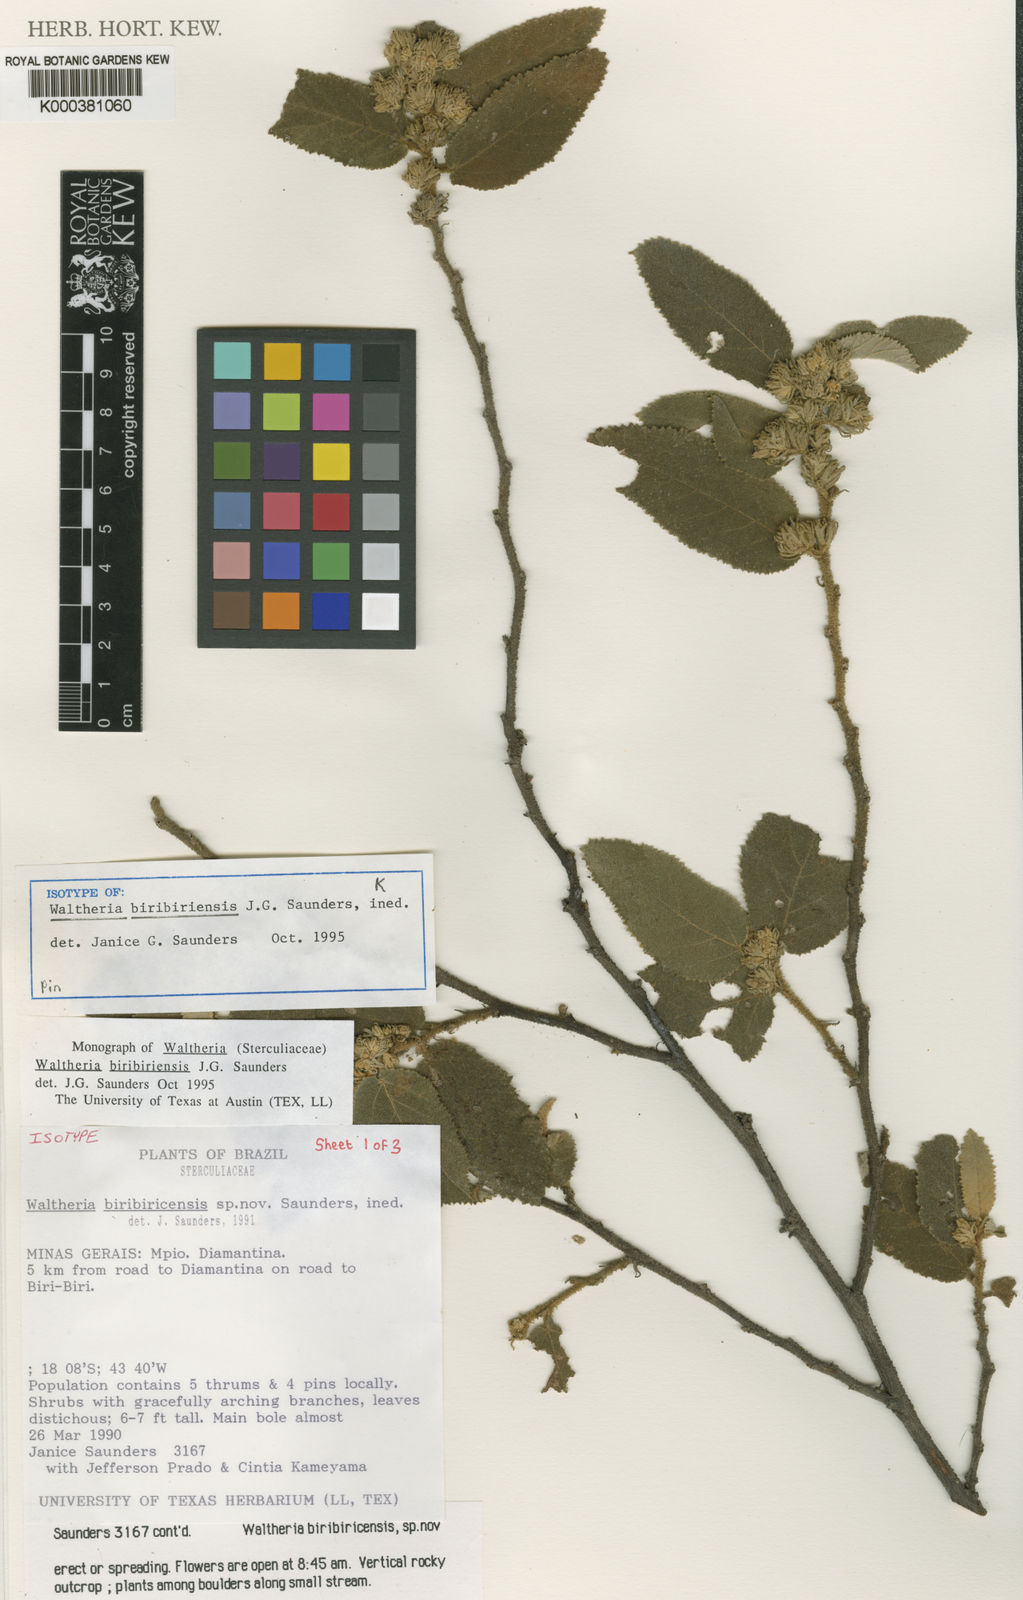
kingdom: Plantae
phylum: Tracheophyta
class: Magnoliopsida
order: Malvales
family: Malvaceae
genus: Waltheria
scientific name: Waltheria
